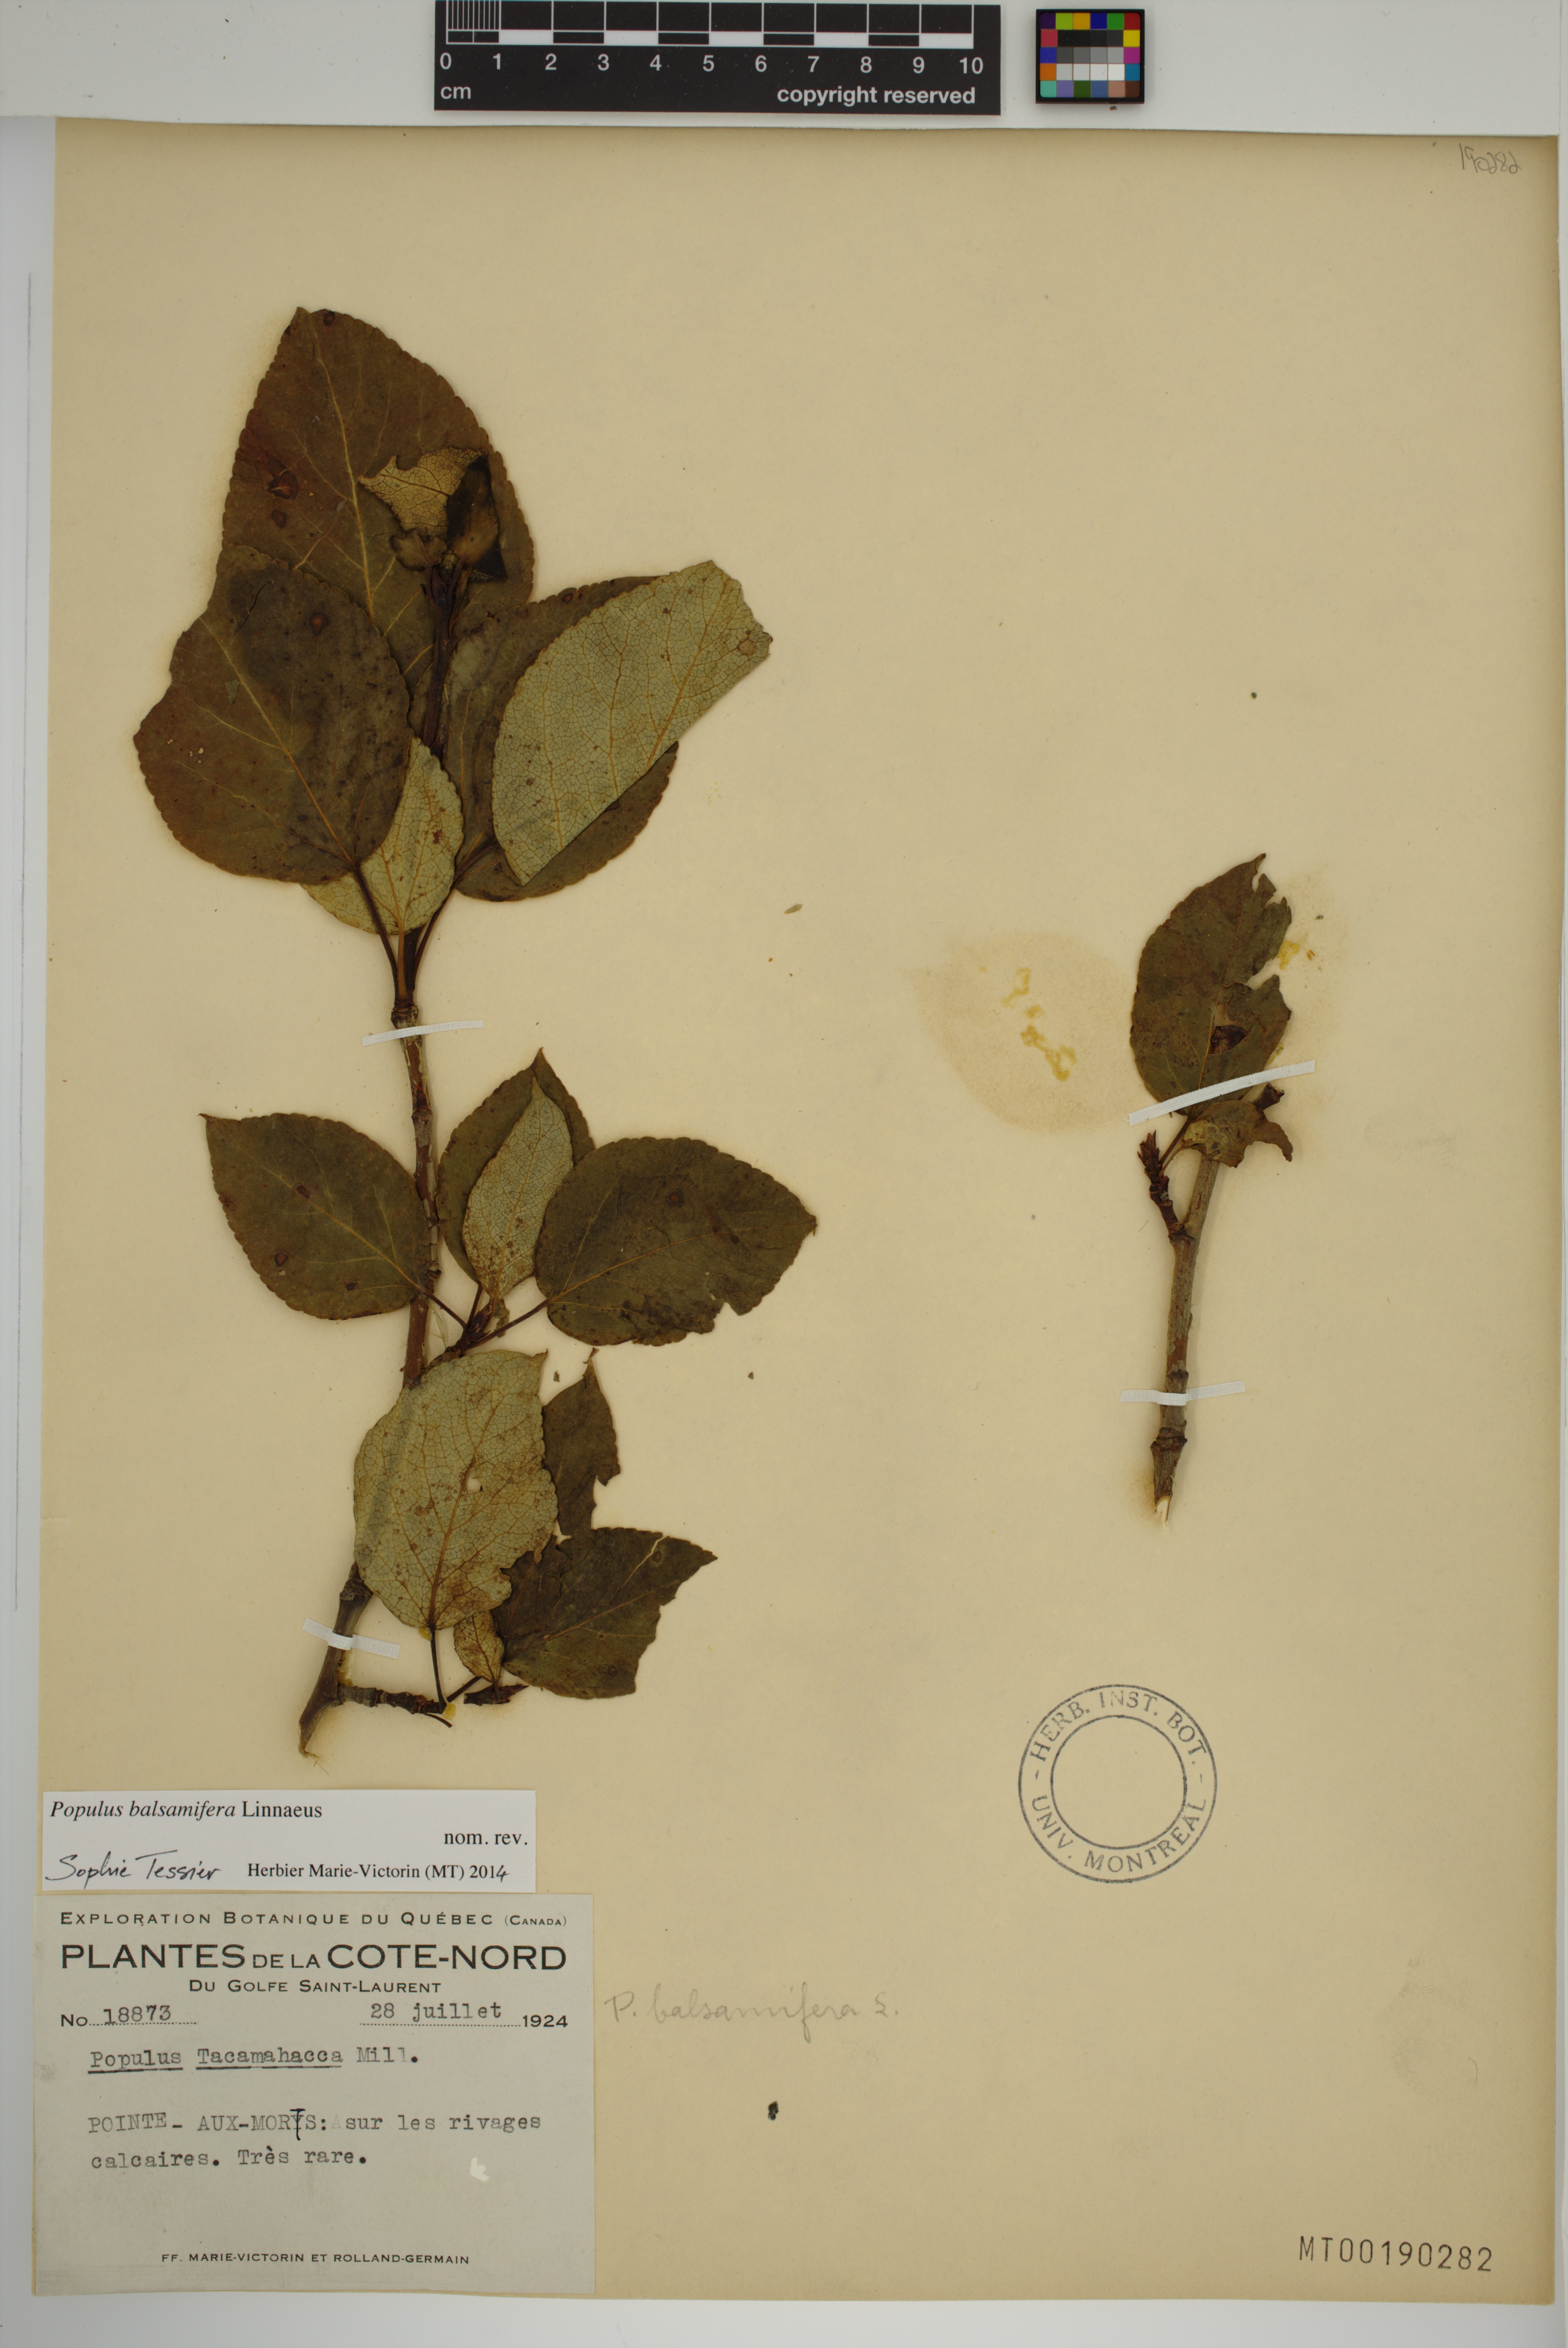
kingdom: Plantae
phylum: Tracheophyta
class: Magnoliopsida
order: Malpighiales
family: Salicaceae
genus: Populus
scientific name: Populus balsamifera
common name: Balsam poplar
